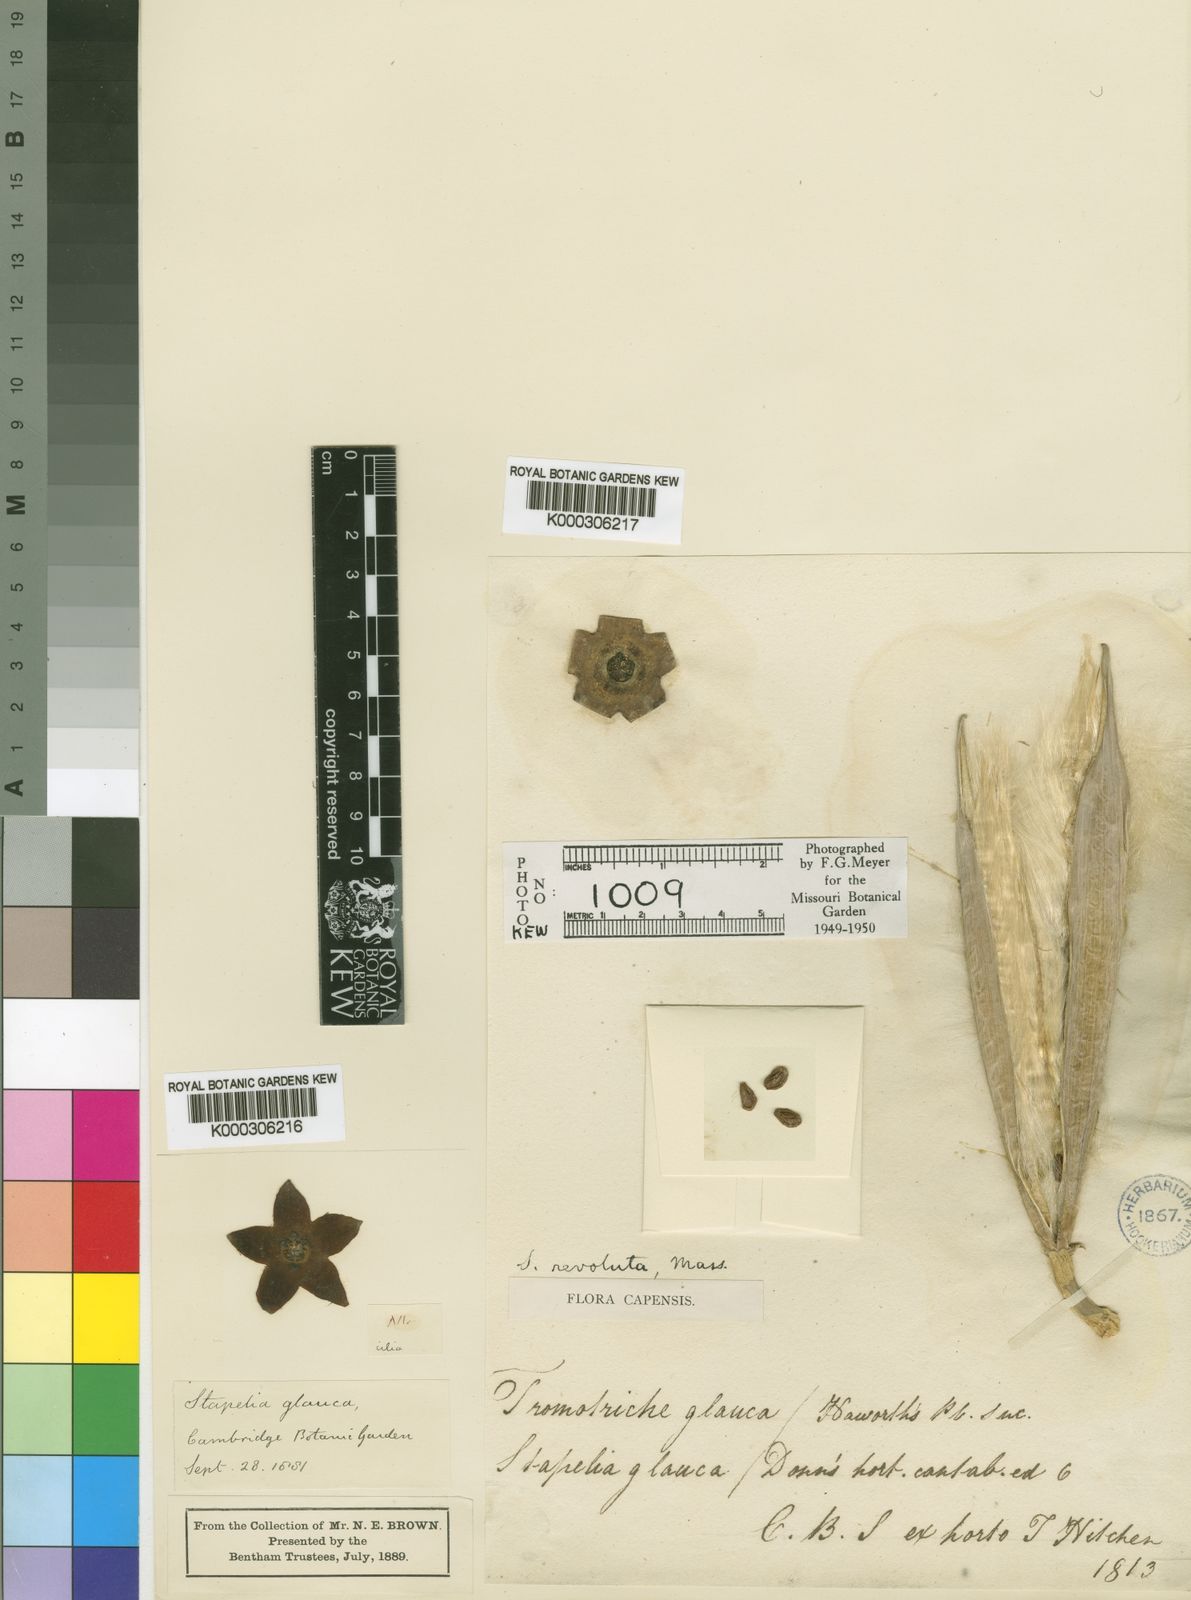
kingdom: Plantae
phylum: Tracheophyta
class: Magnoliopsida
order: Gentianales
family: Apocynaceae
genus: Ceropegia
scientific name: Ceropegia revoluta
